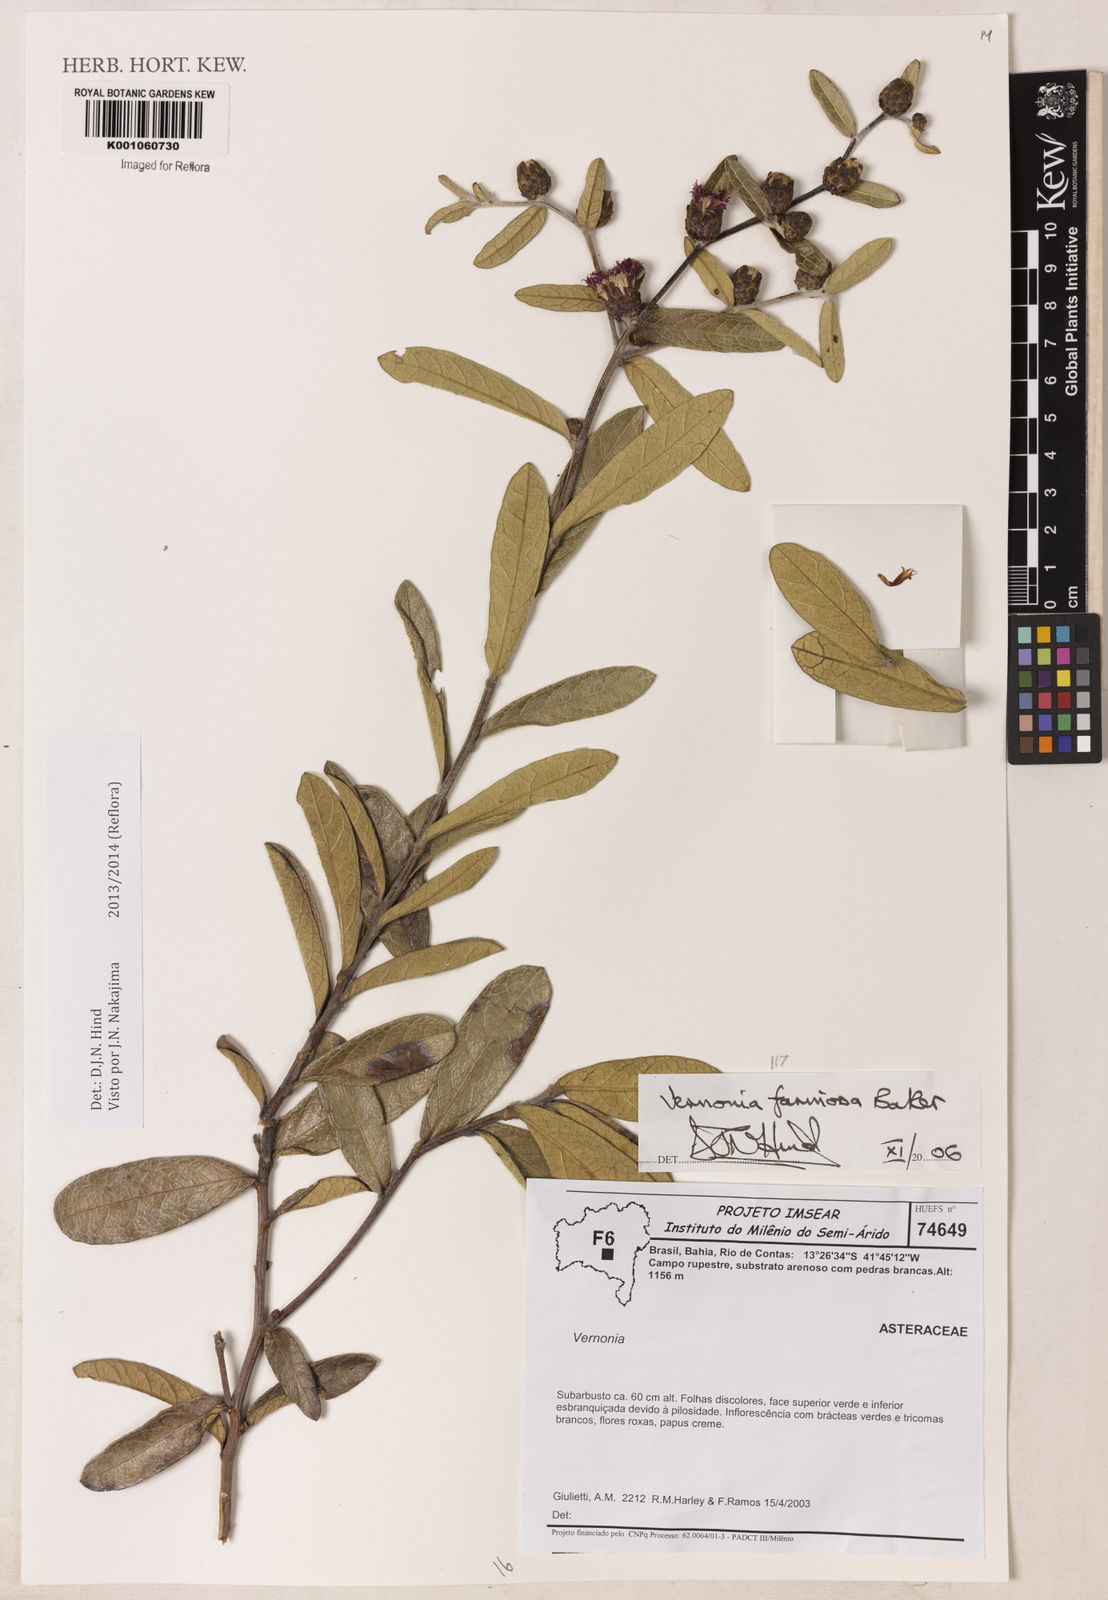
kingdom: Plantae
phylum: Tracheophyta
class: Magnoliopsida
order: Asterales
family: Asteraceae
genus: Lessingianthus
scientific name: Lessingianthus farinosus
